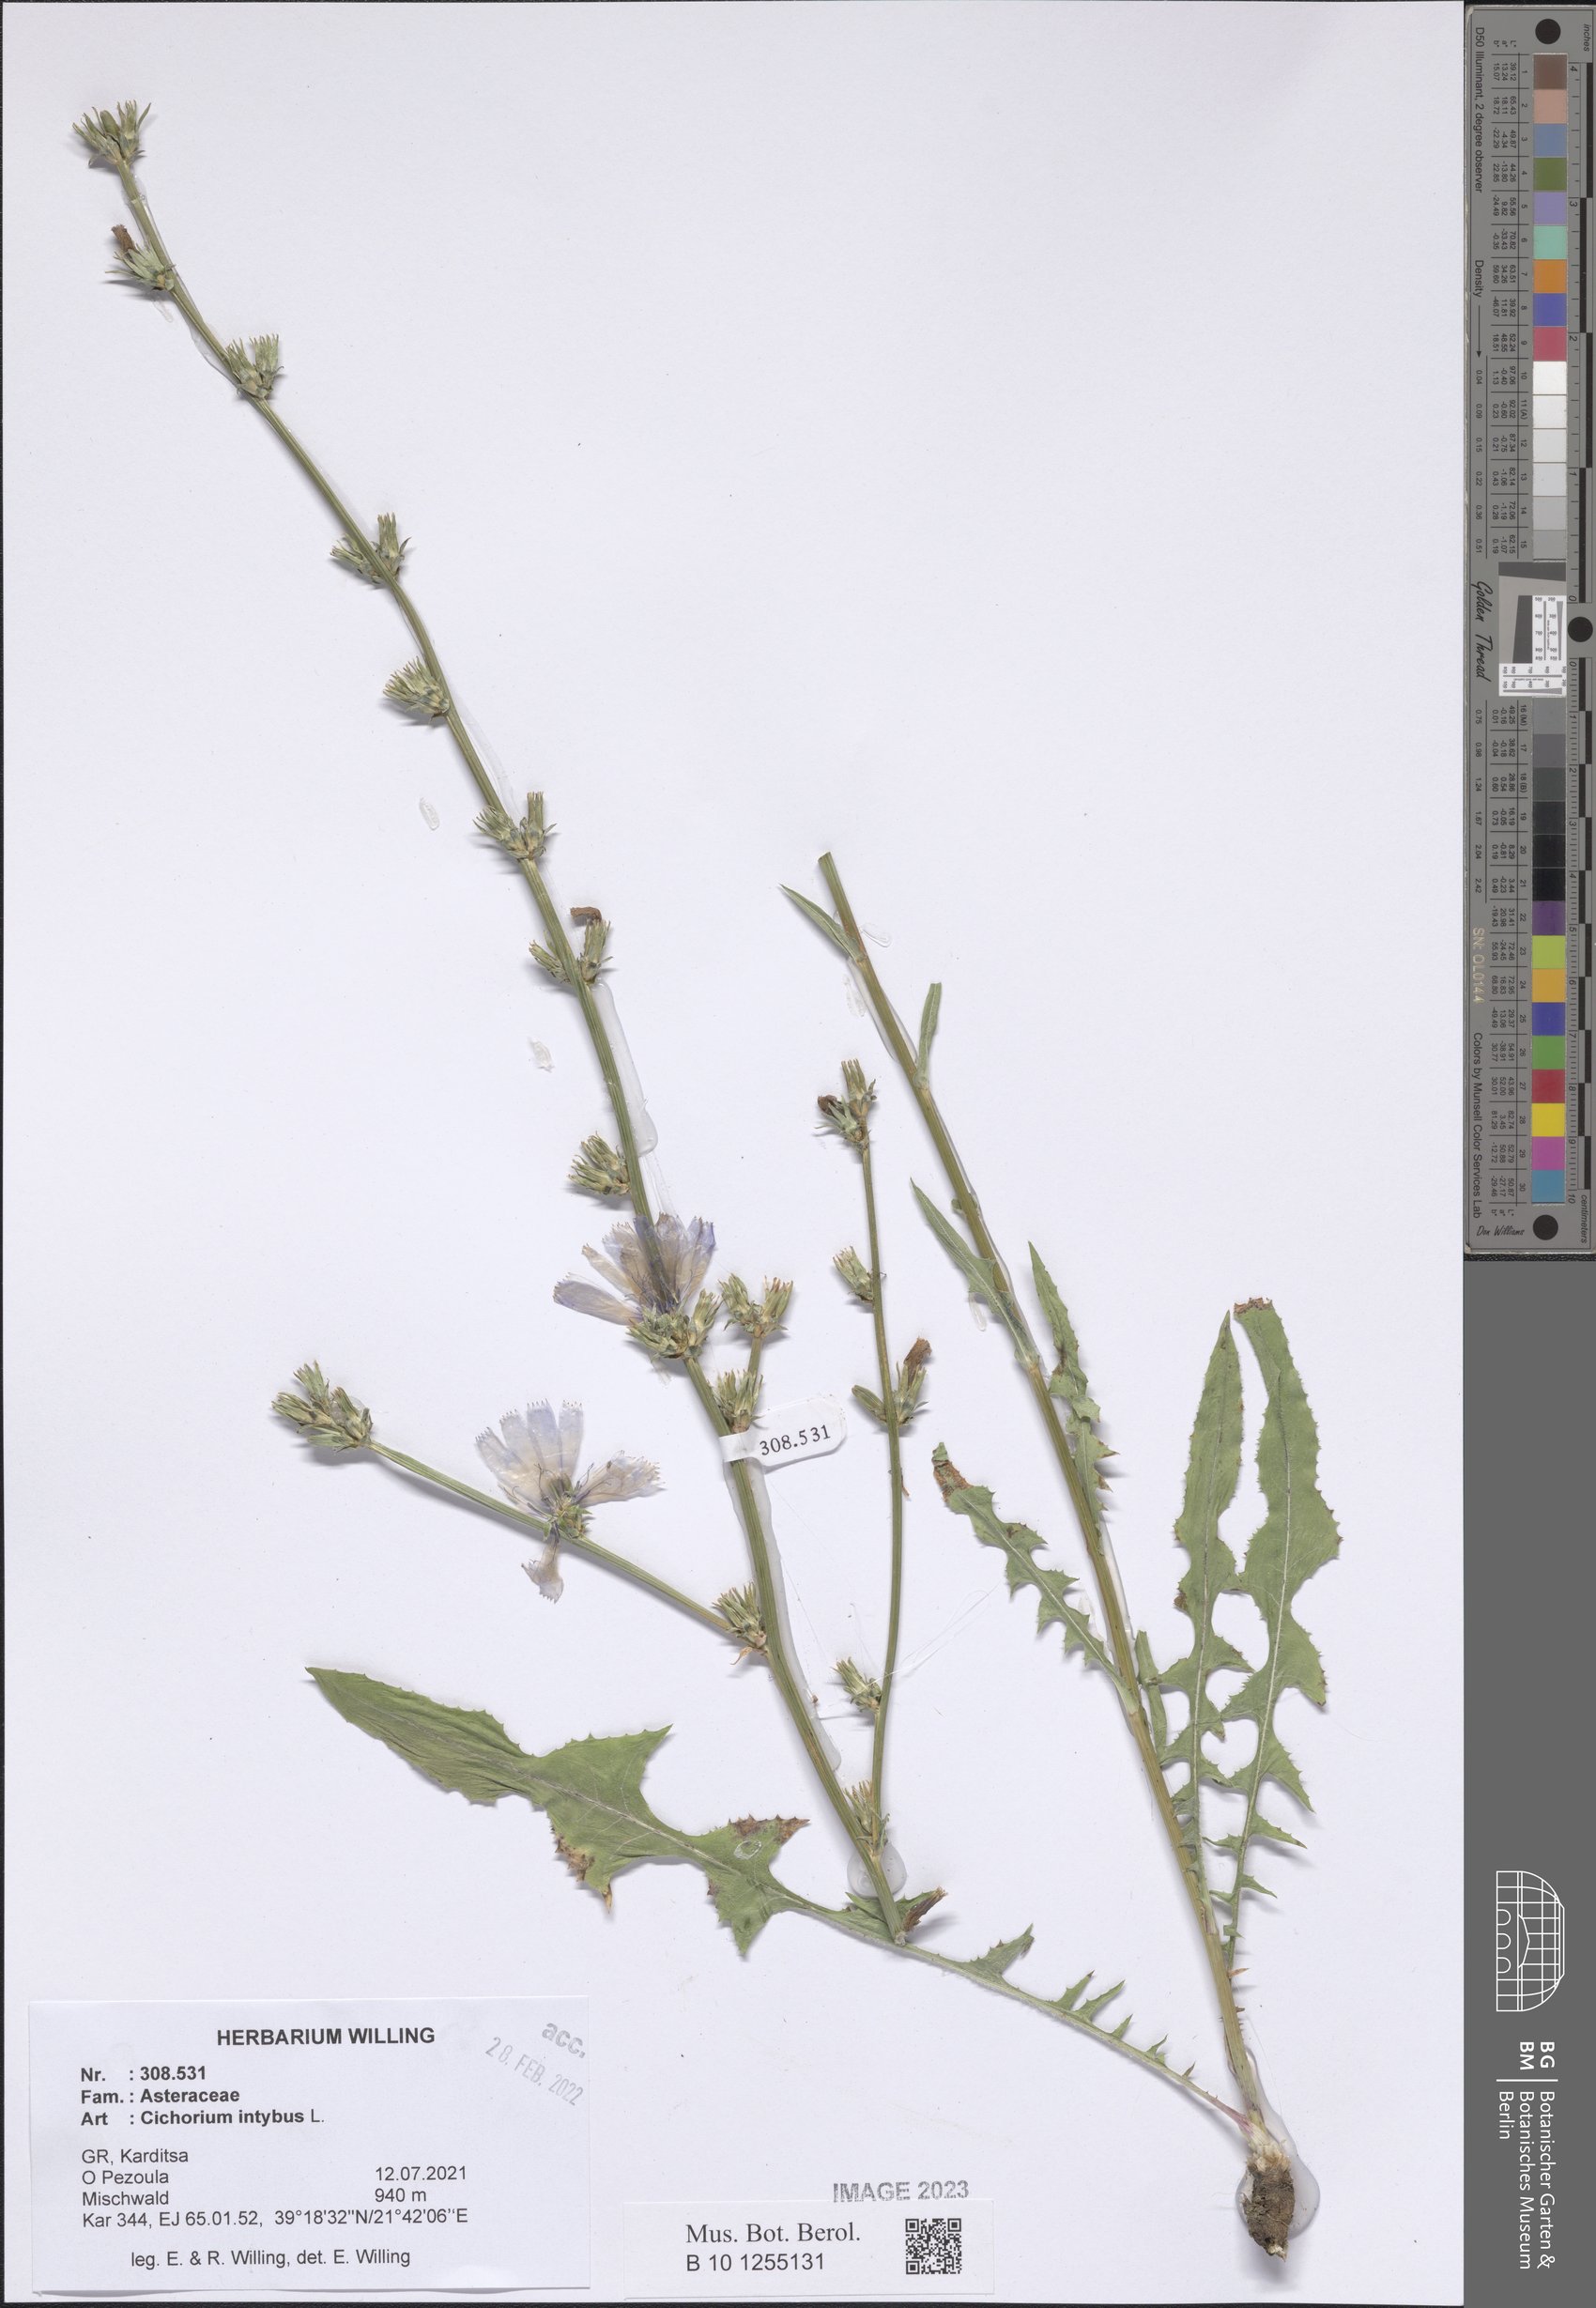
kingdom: Plantae
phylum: Tracheophyta
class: Magnoliopsida
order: Asterales
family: Asteraceae
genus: Cichorium
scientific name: Cichorium intybus
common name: Chicory
